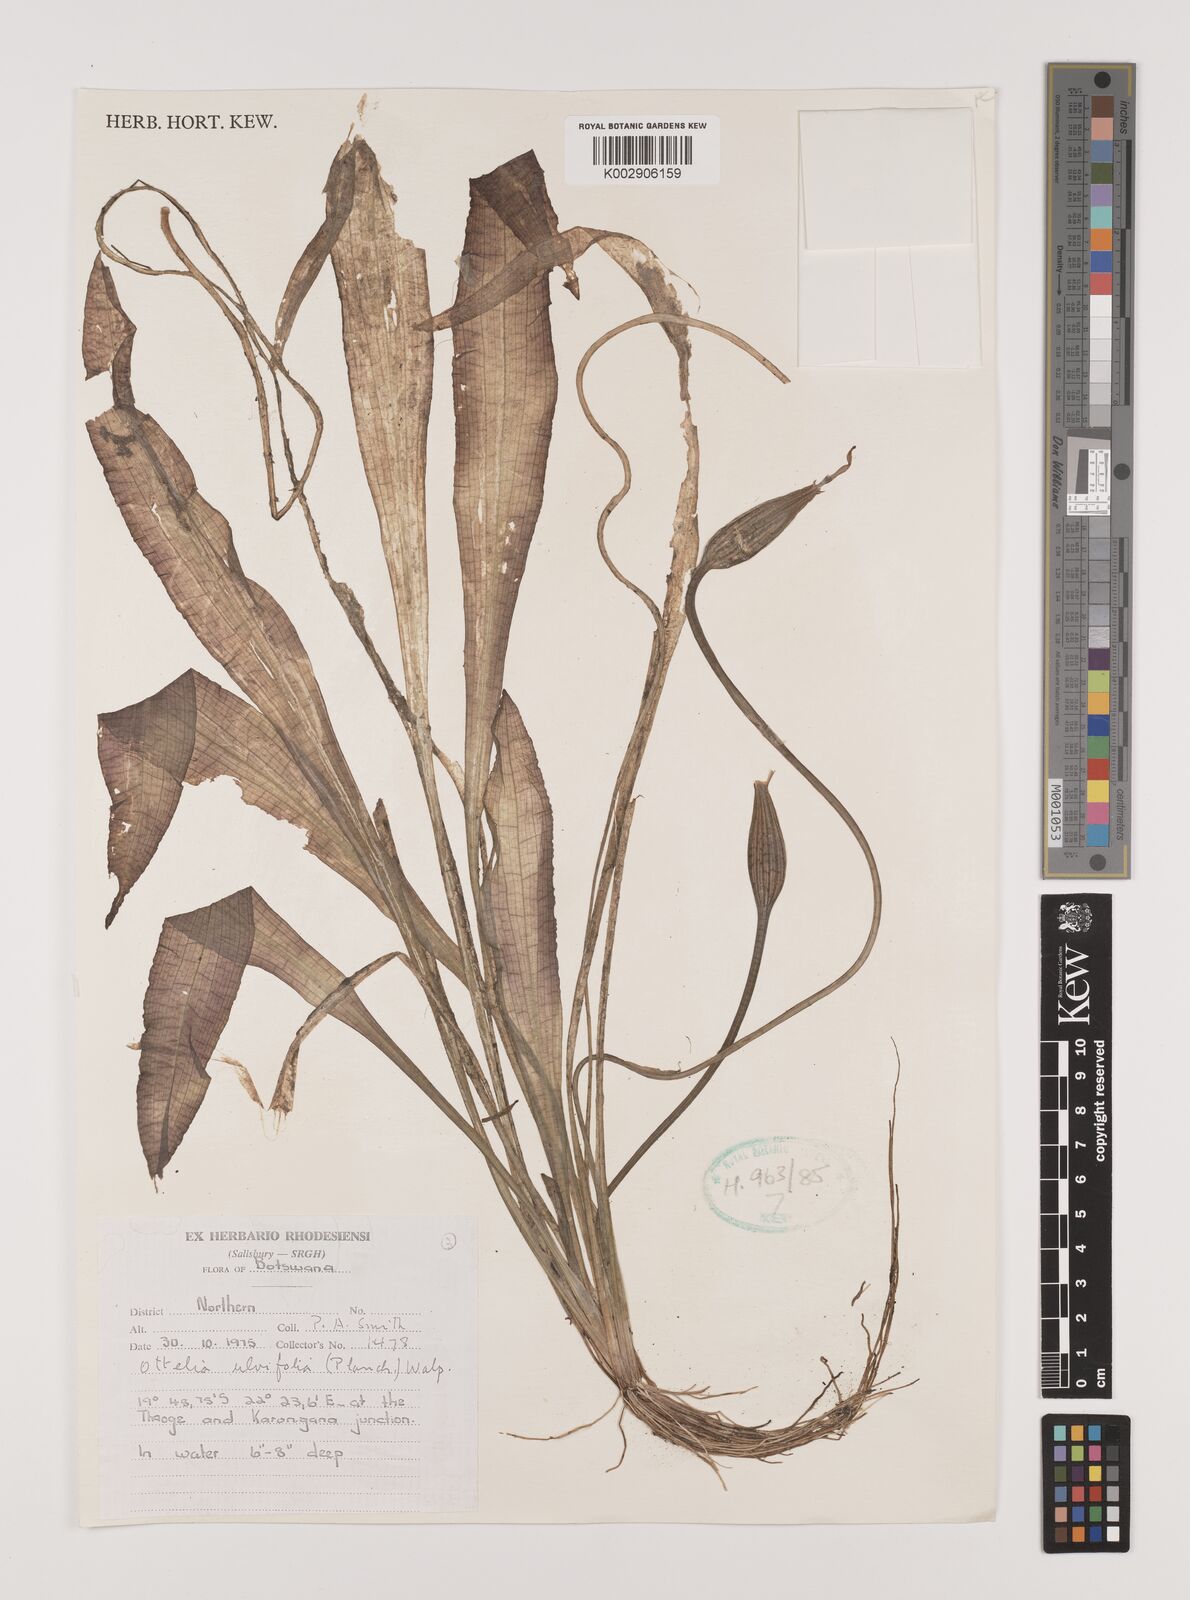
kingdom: Plantae
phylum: Tracheophyta
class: Liliopsida
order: Alismatales
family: Hydrocharitaceae
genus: Ottelia
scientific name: Ottelia ulvifolia
